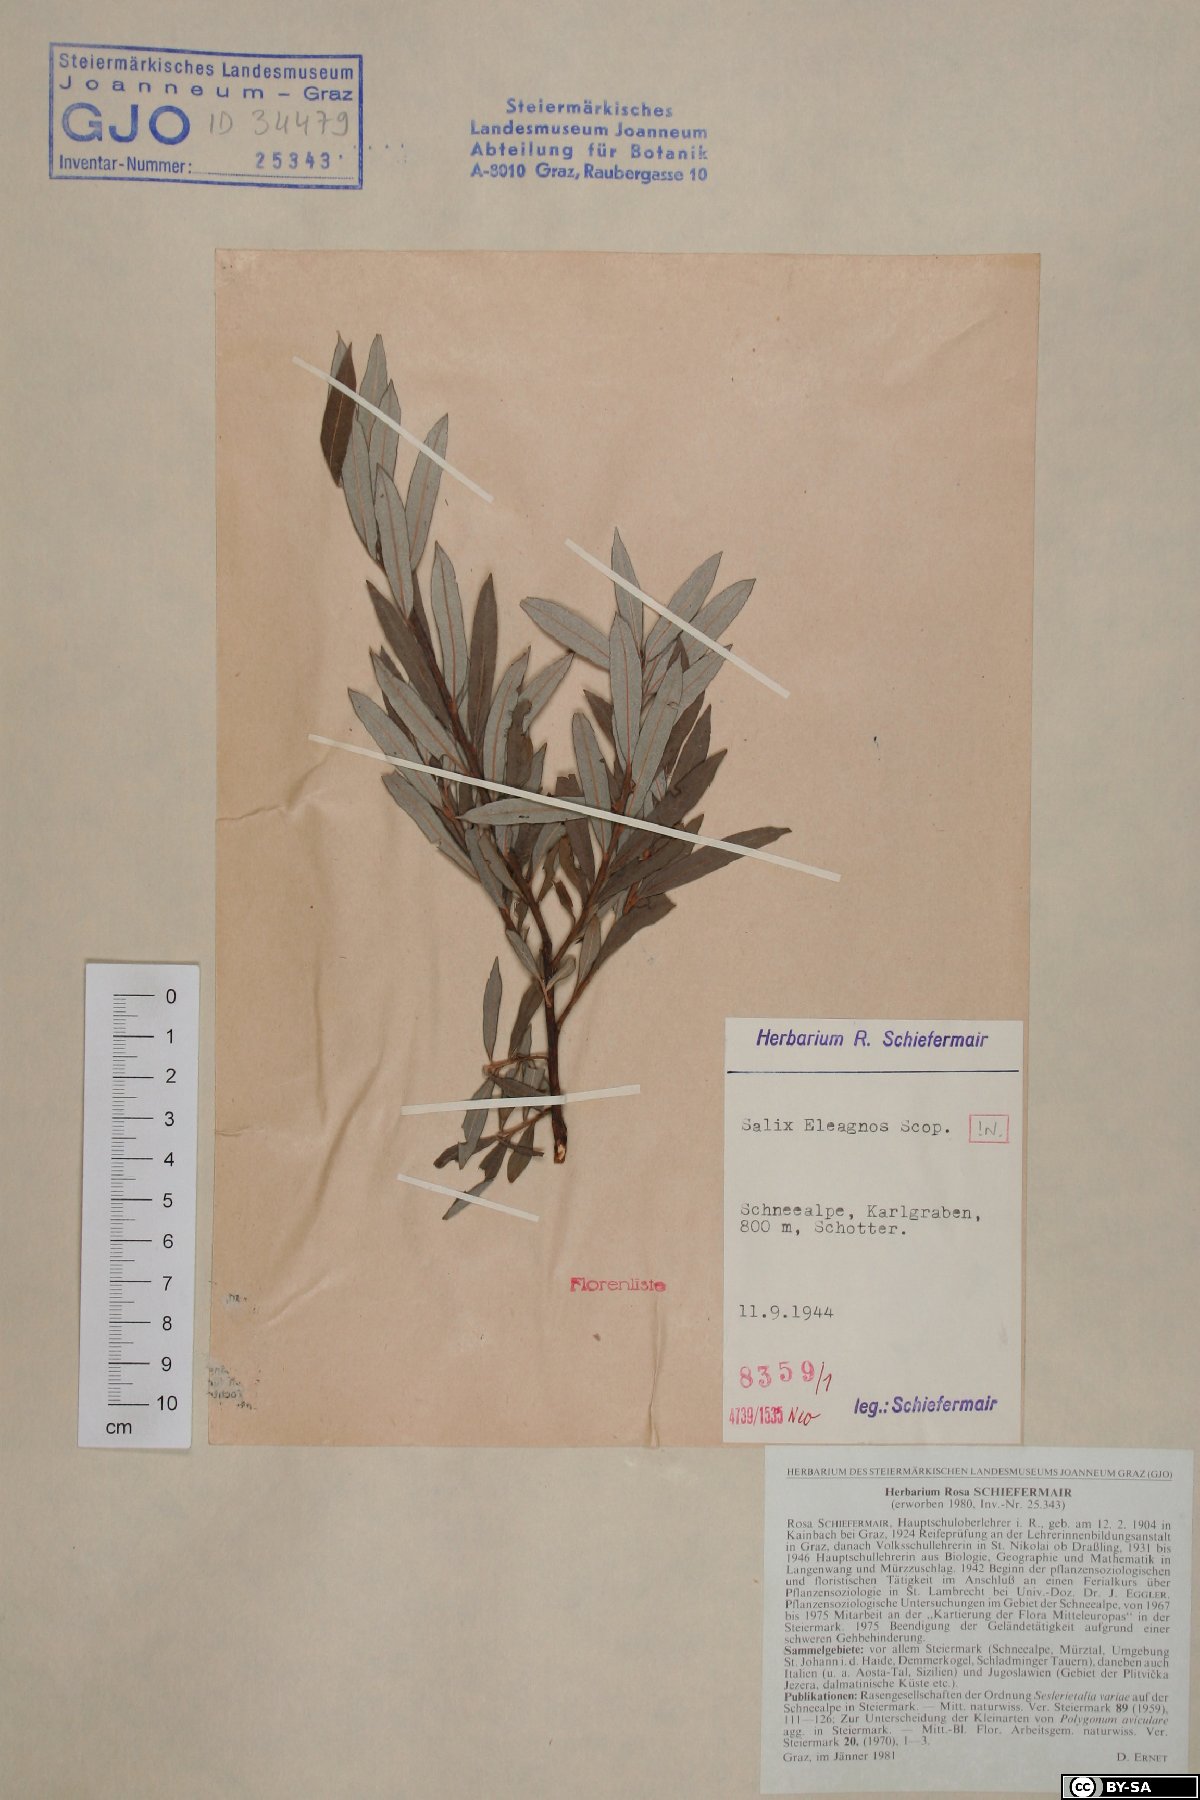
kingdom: Plantae
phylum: Tracheophyta
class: Magnoliopsida
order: Malpighiales
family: Salicaceae
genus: Salix
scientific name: Salix eleagnos
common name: Elaeagnus willow
